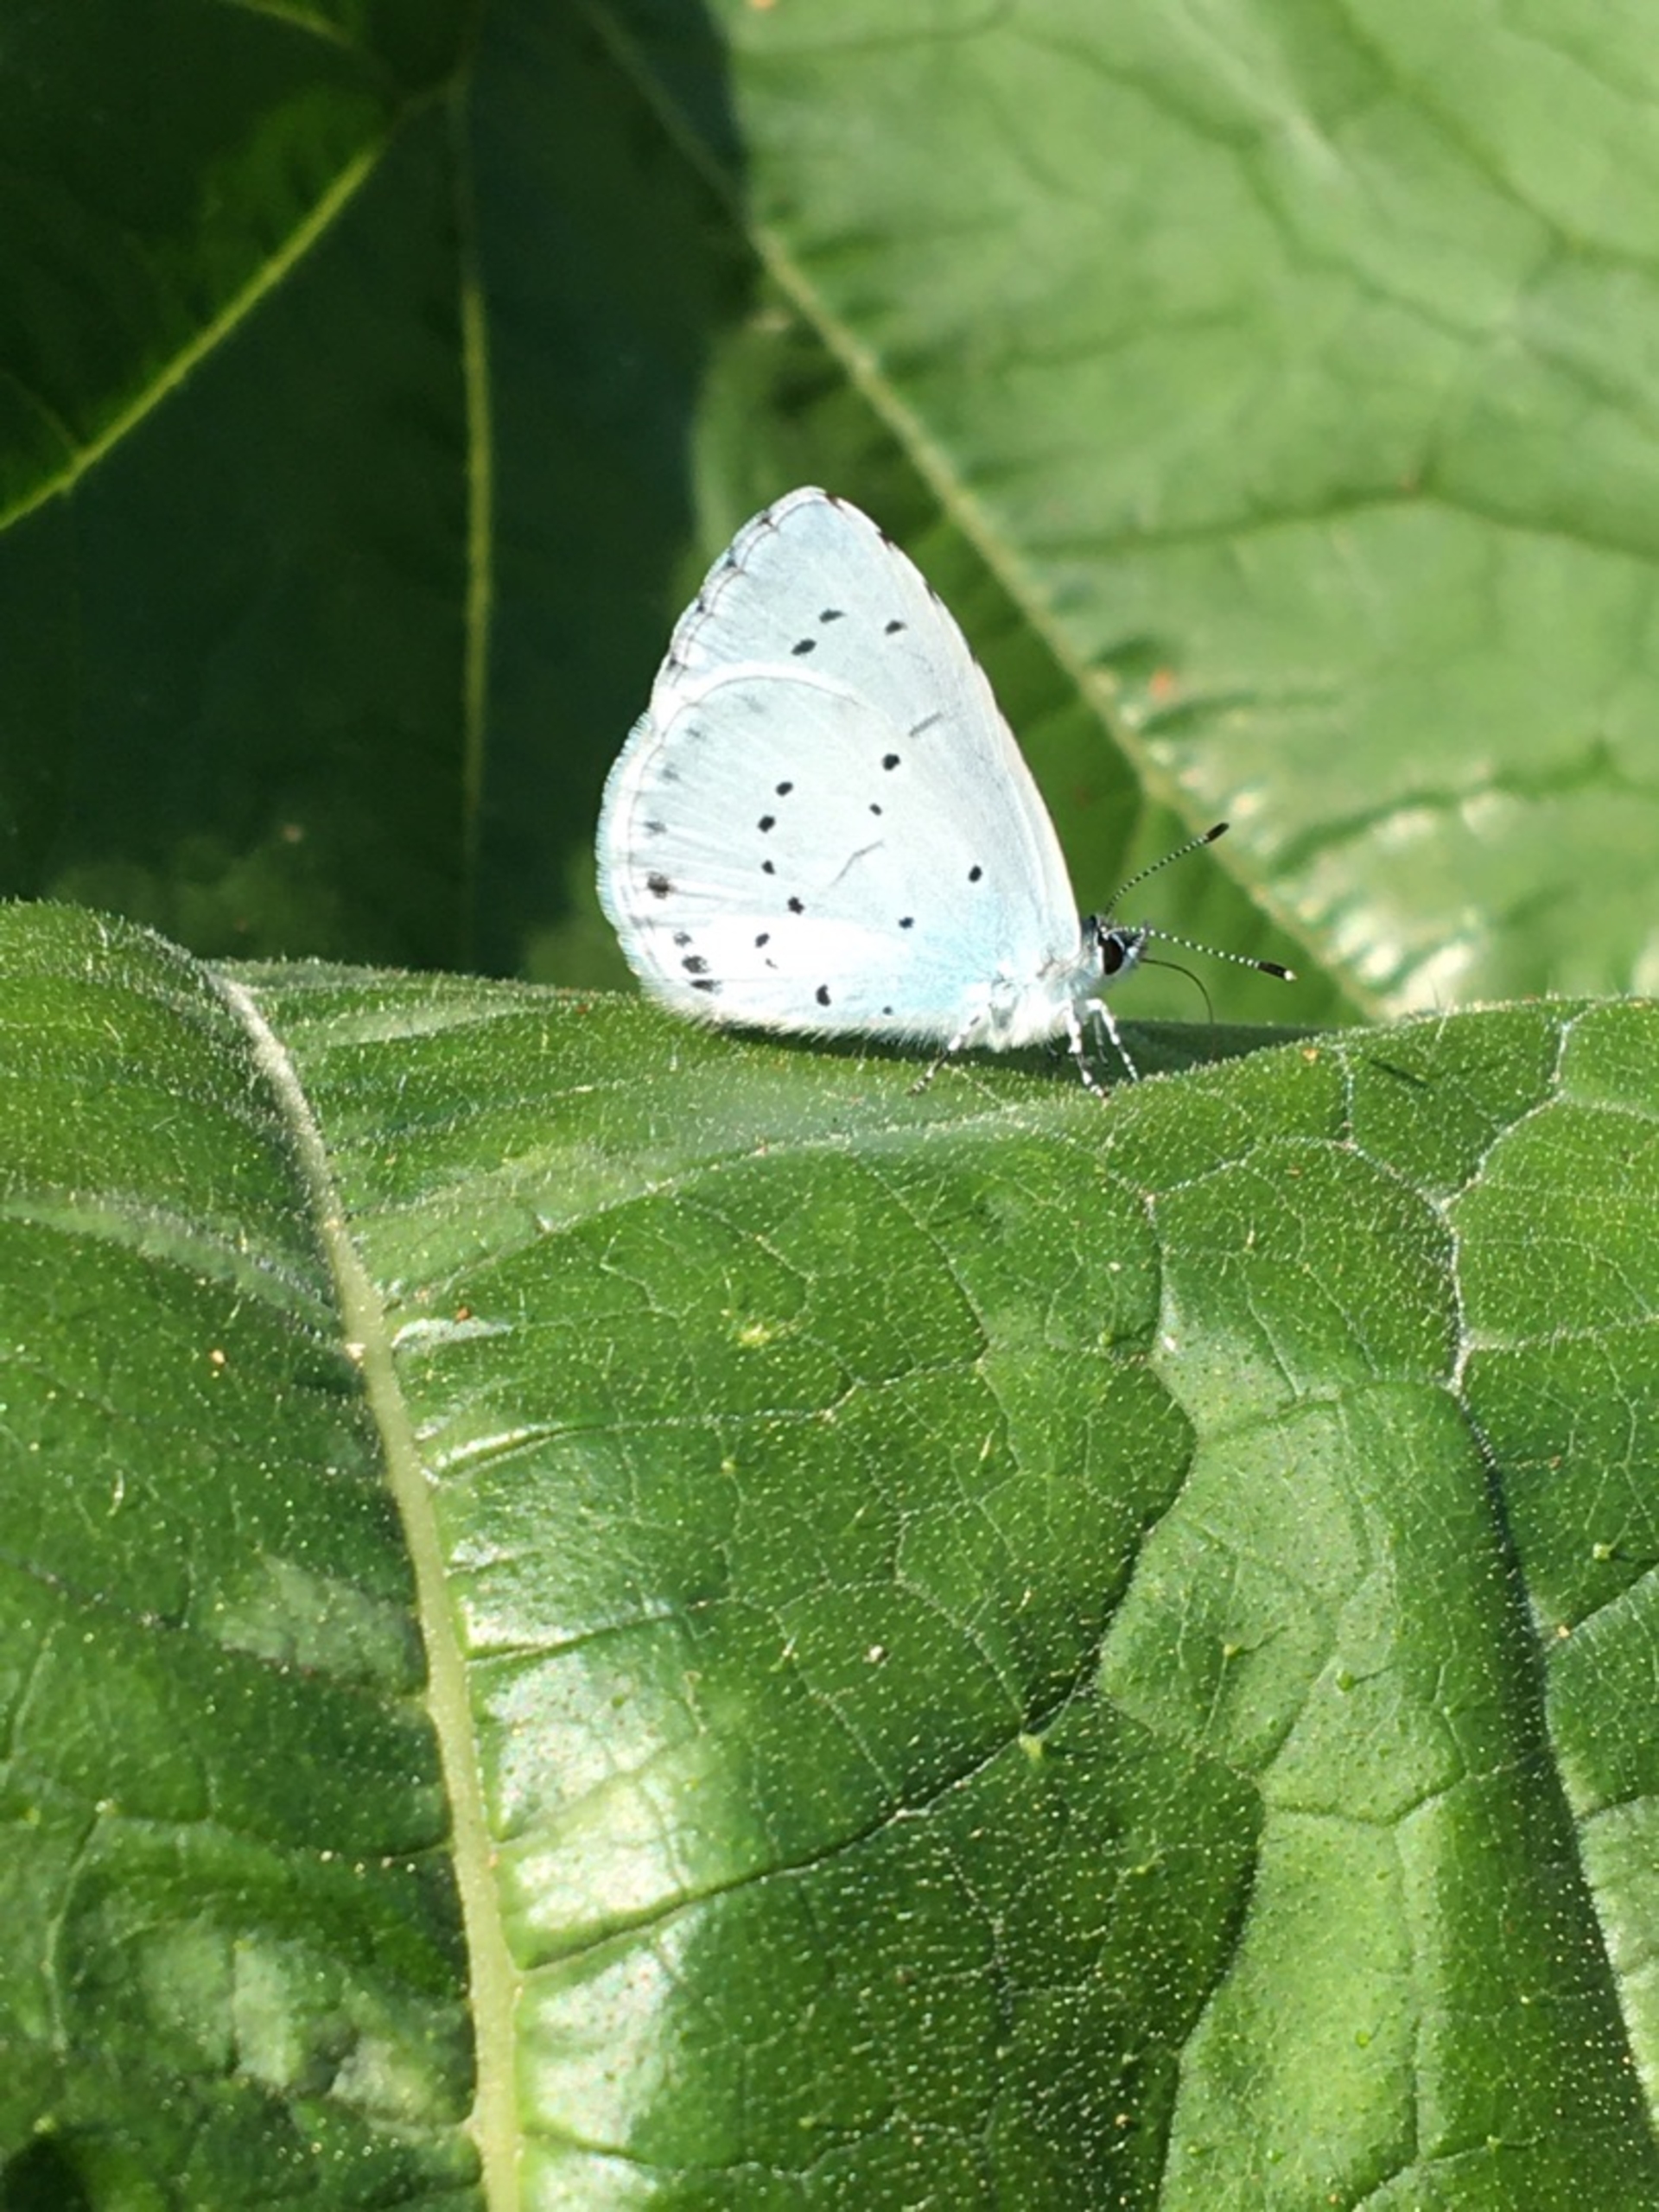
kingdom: Animalia
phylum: Arthropoda
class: Insecta
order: Lepidoptera
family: Lycaenidae
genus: Celastrina
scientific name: Celastrina argiolus
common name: Skovblåfugl
